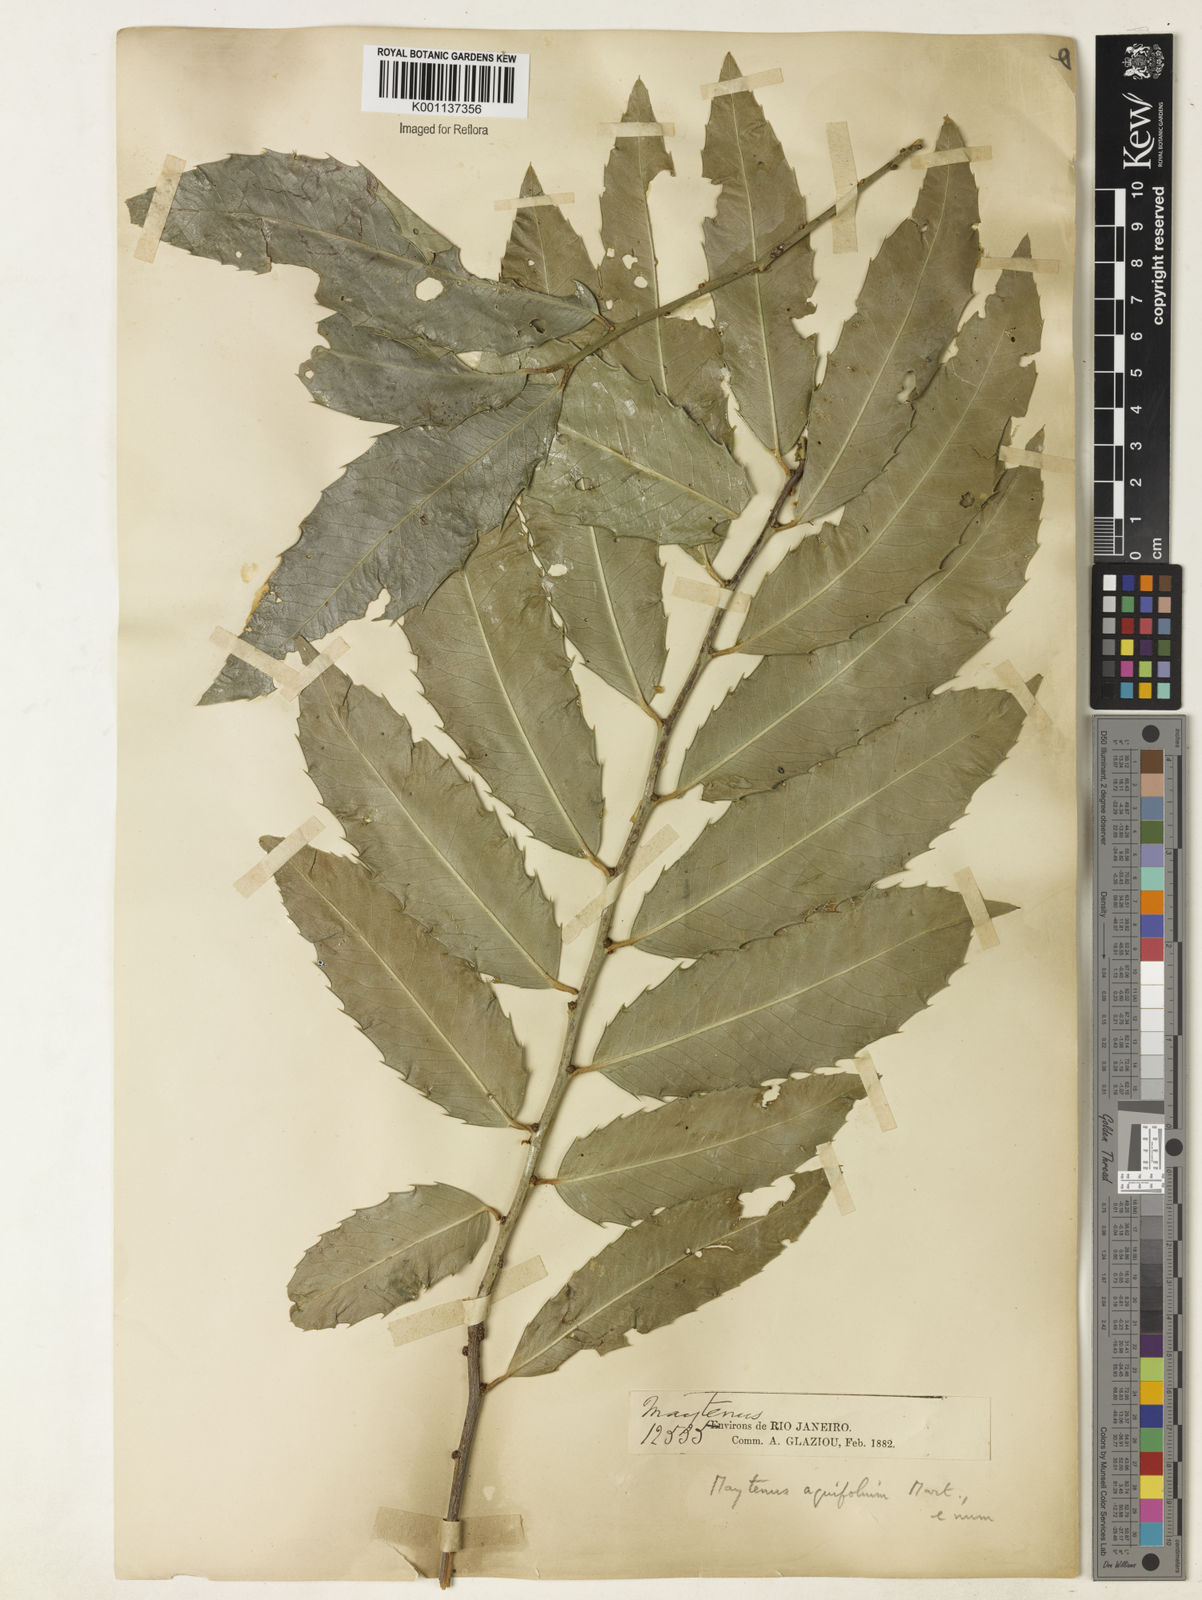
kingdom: Plantae
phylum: Tracheophyta
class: Magnoliopsida
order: Celastrales
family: Celastraceae
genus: Monteverdia
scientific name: Monteverdia aquifolium
